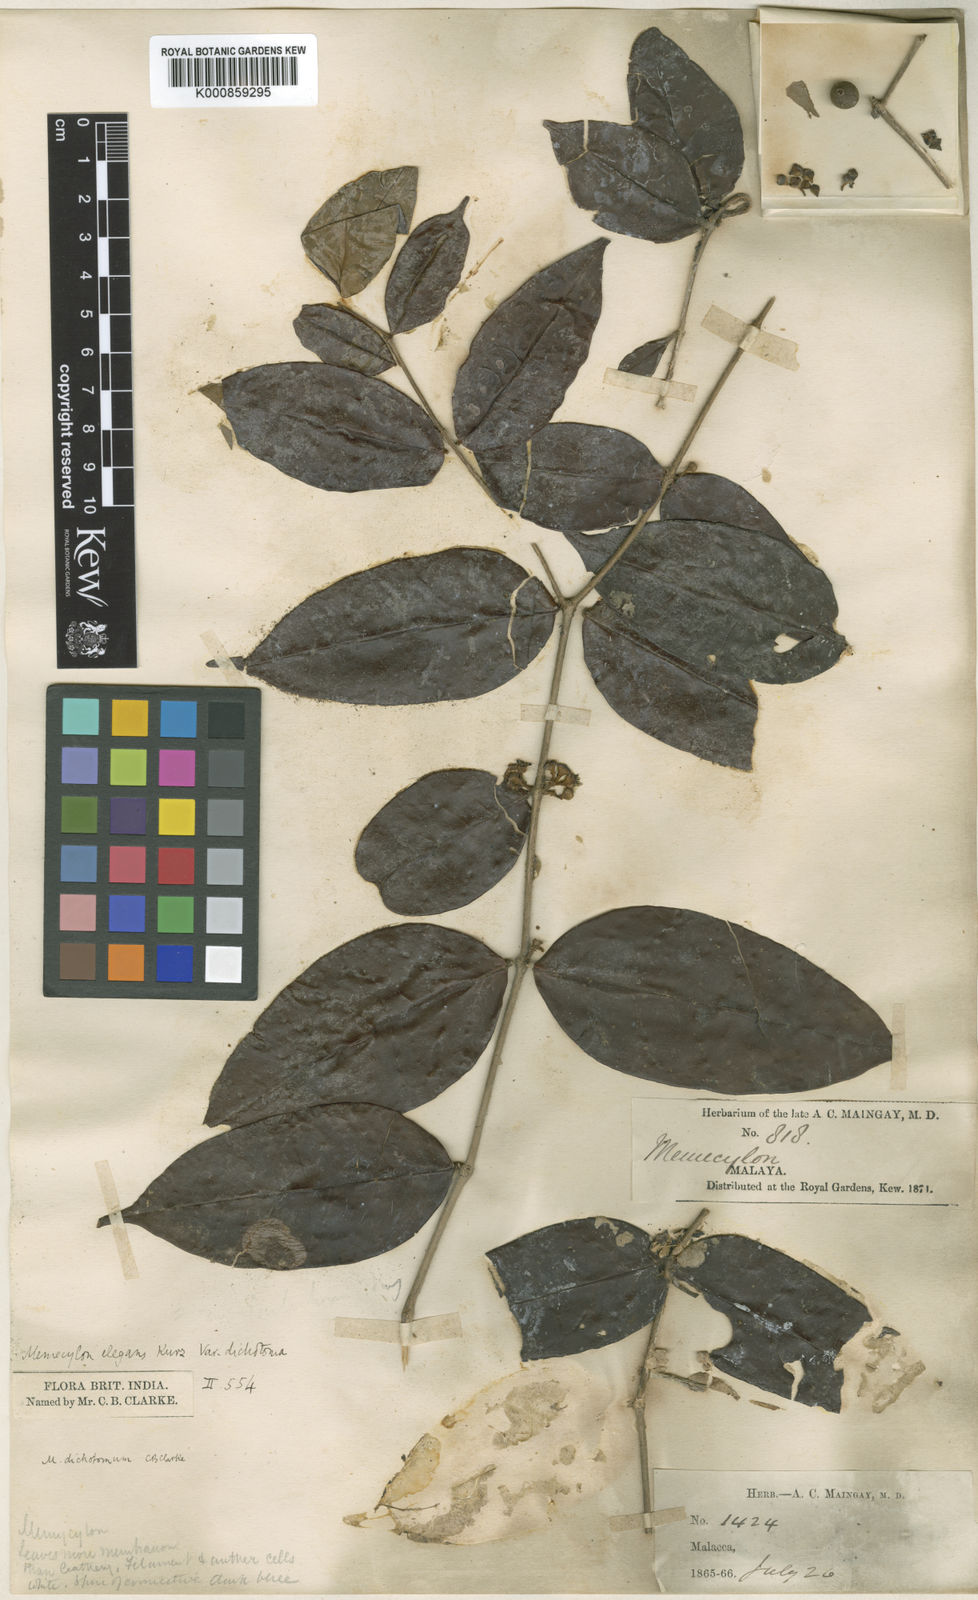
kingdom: Plantae
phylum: Tracheophyta
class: Magnoliopsida
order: Myrtales
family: Melastomataceae
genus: Memecylon
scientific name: Memecylon dichotomum
